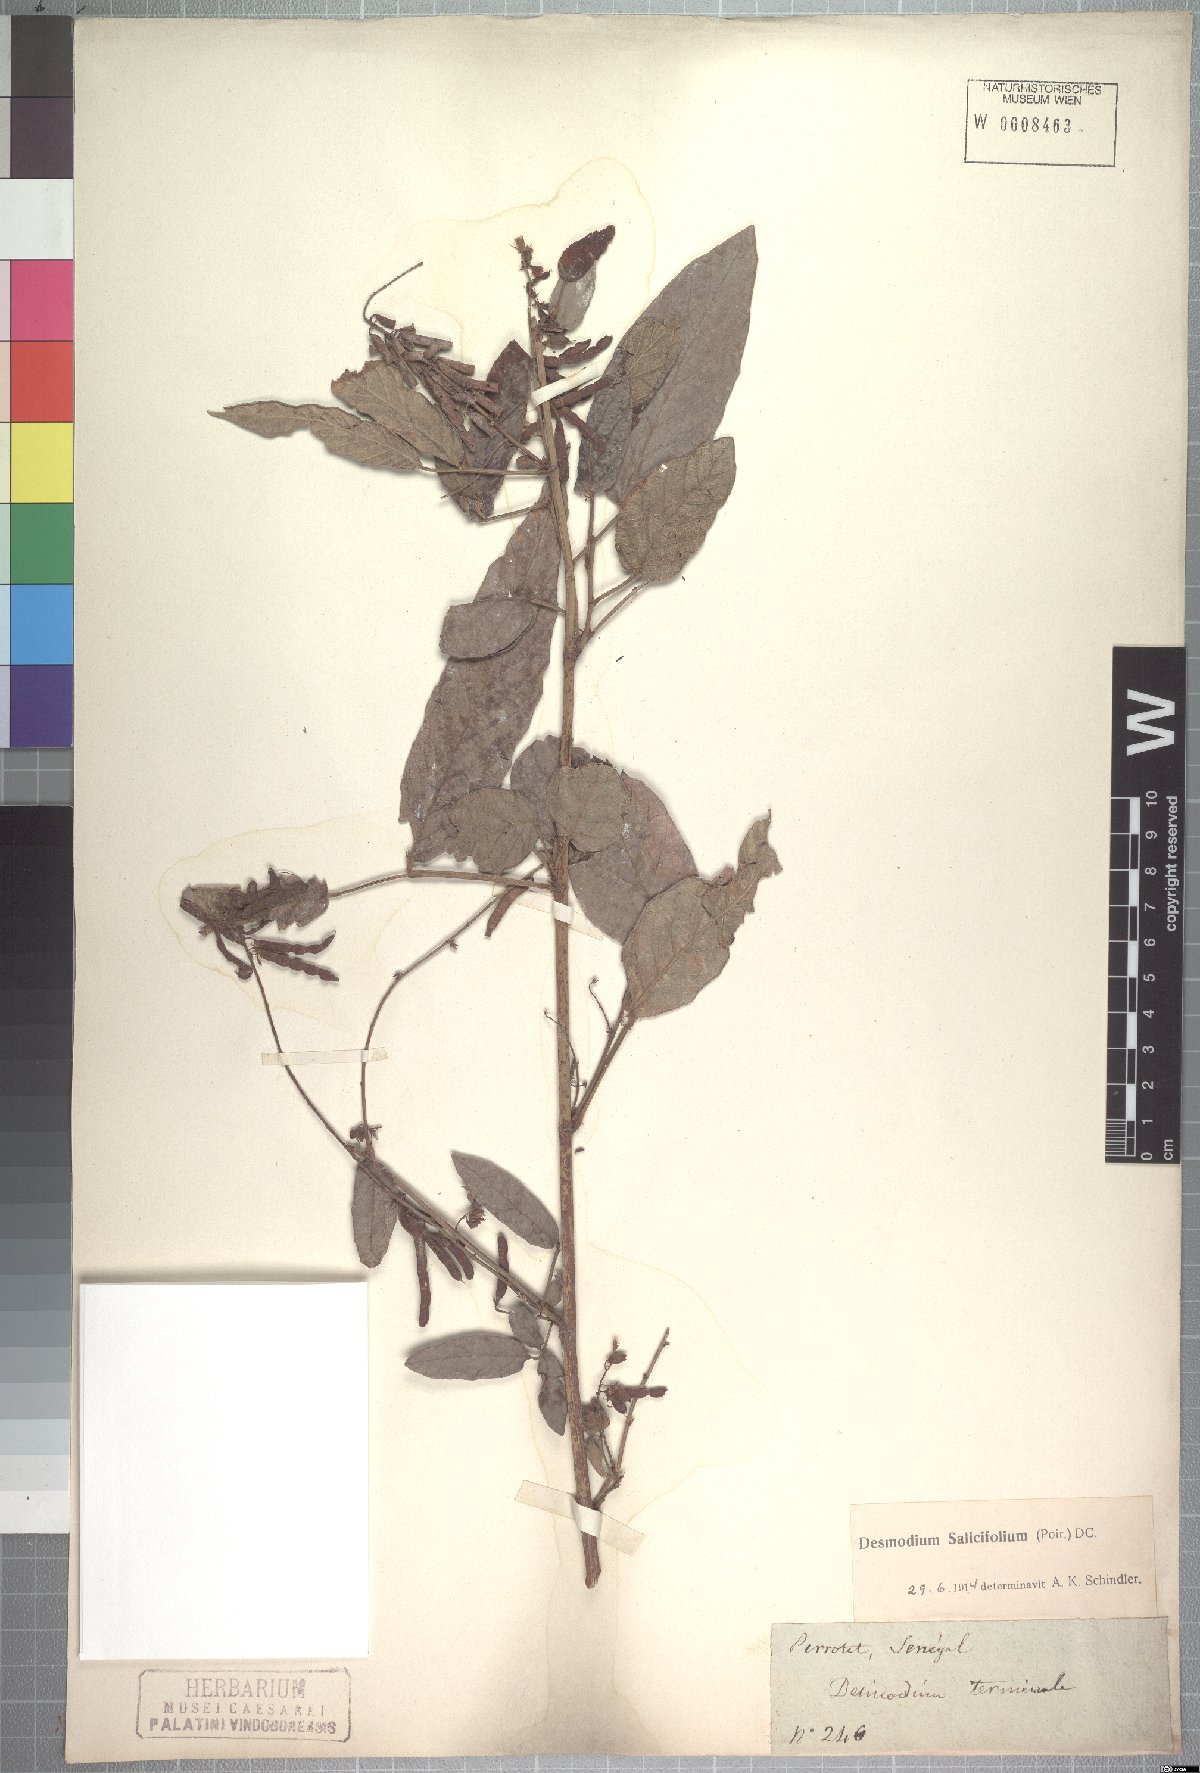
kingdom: Plantae
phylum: Tracheophyta
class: Magnoliopsida
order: Fabales
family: Fabaceae
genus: Pleurolobus
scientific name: Pleurolobus salicifolius
